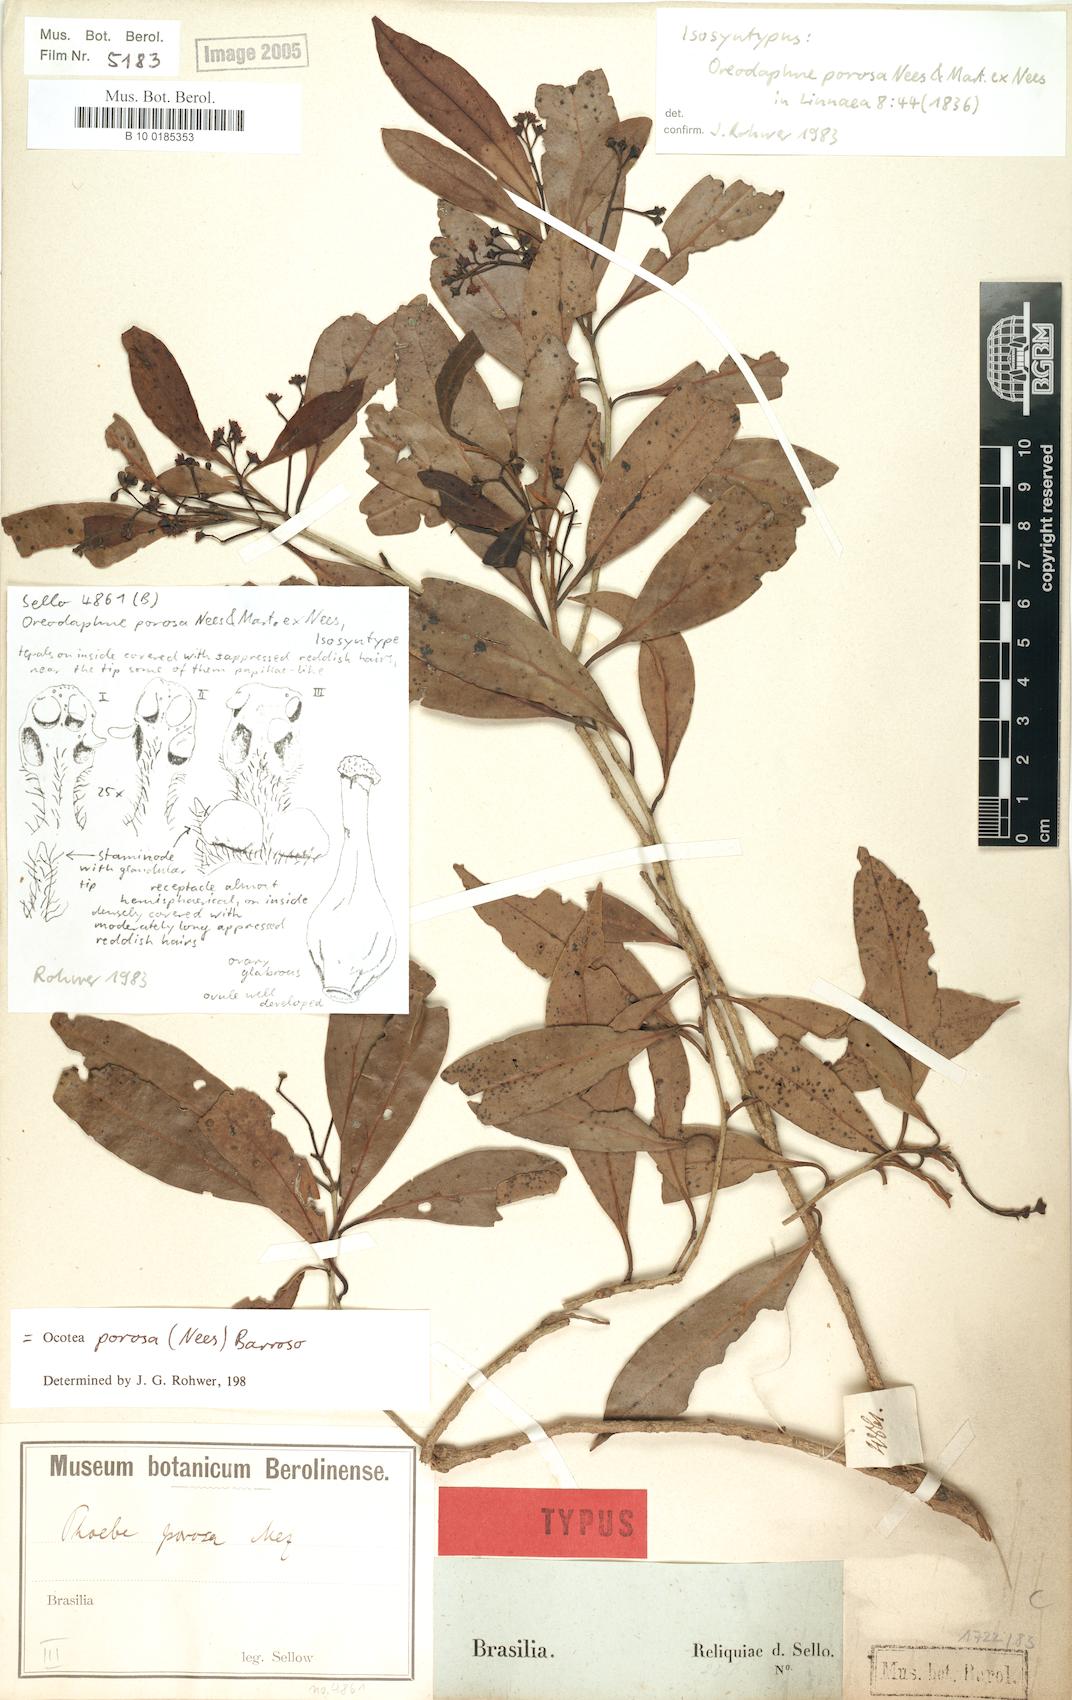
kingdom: Plantae
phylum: Tracheophyta
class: Magnoliopsida
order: Laurales
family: Lauraceae
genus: Ocotea
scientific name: Ocotea porosa
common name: Brazilian-walnut
